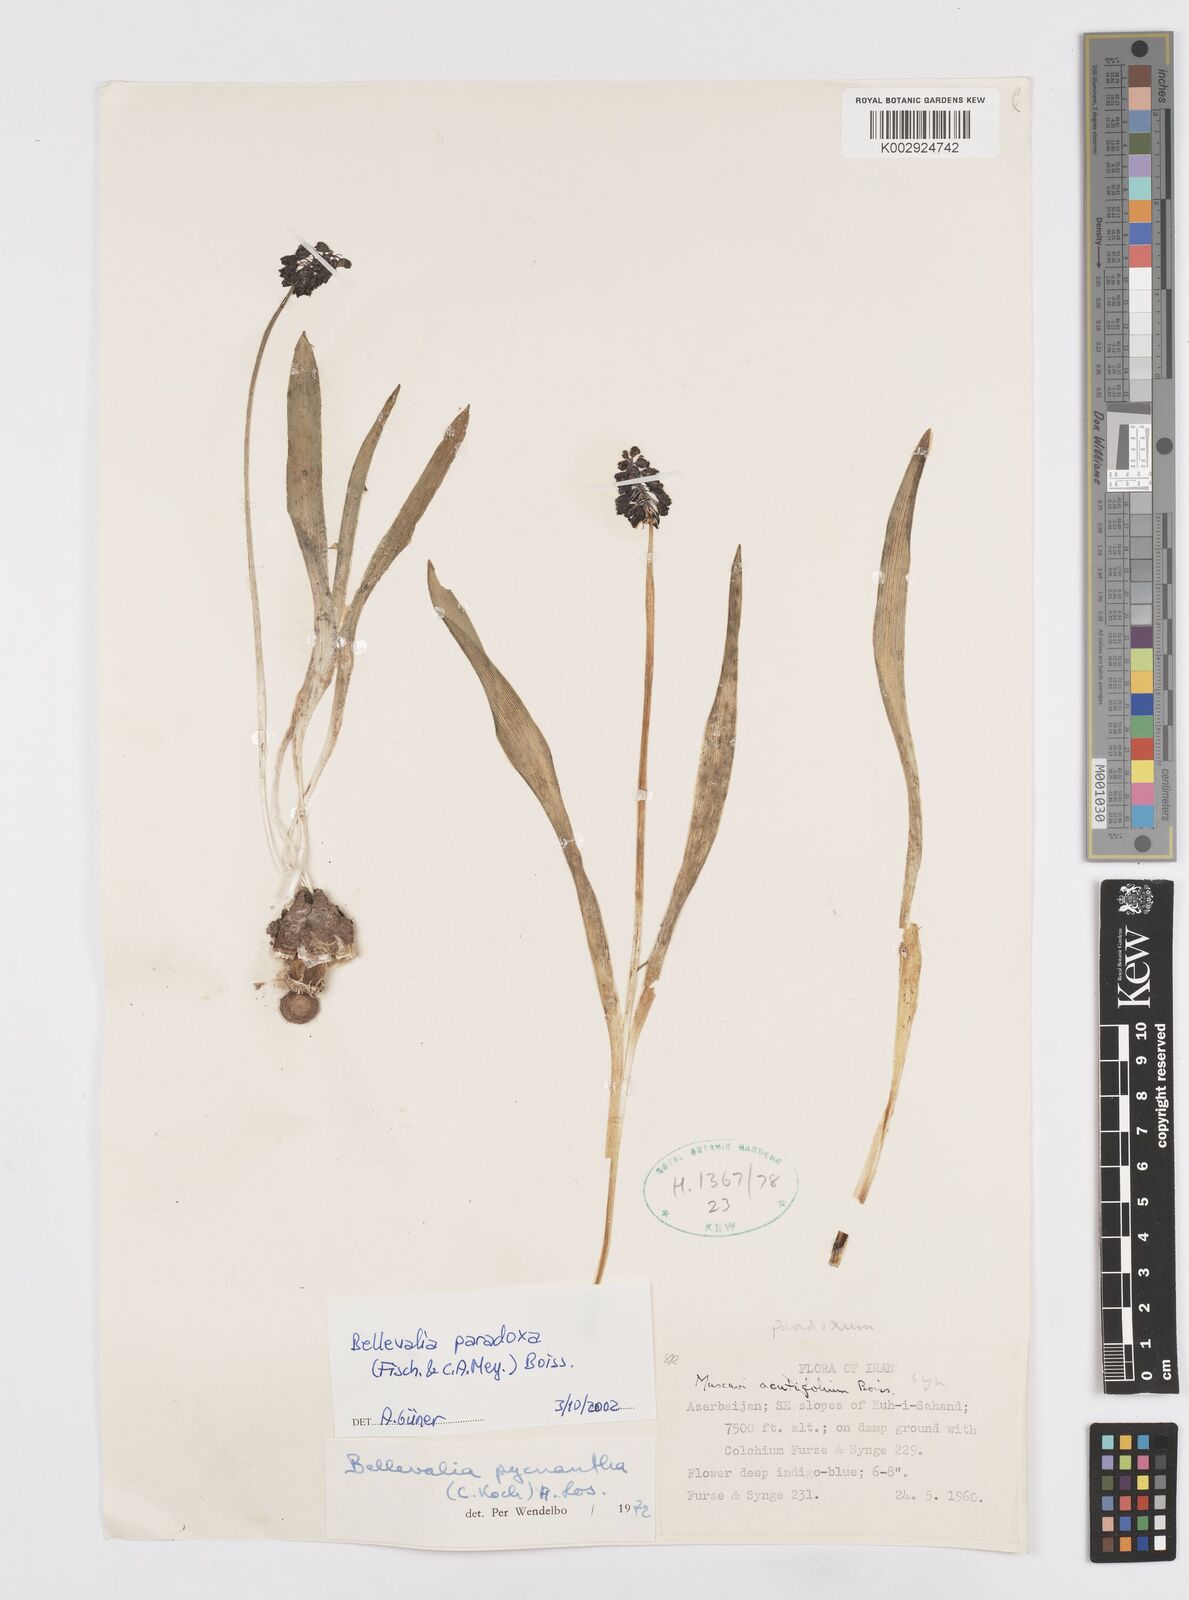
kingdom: Plantae
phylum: Tracheophyta
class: Liliopsida
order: Asparagales
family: Asparagaceae
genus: Bellevalia
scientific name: Bellevalia paradoxa
